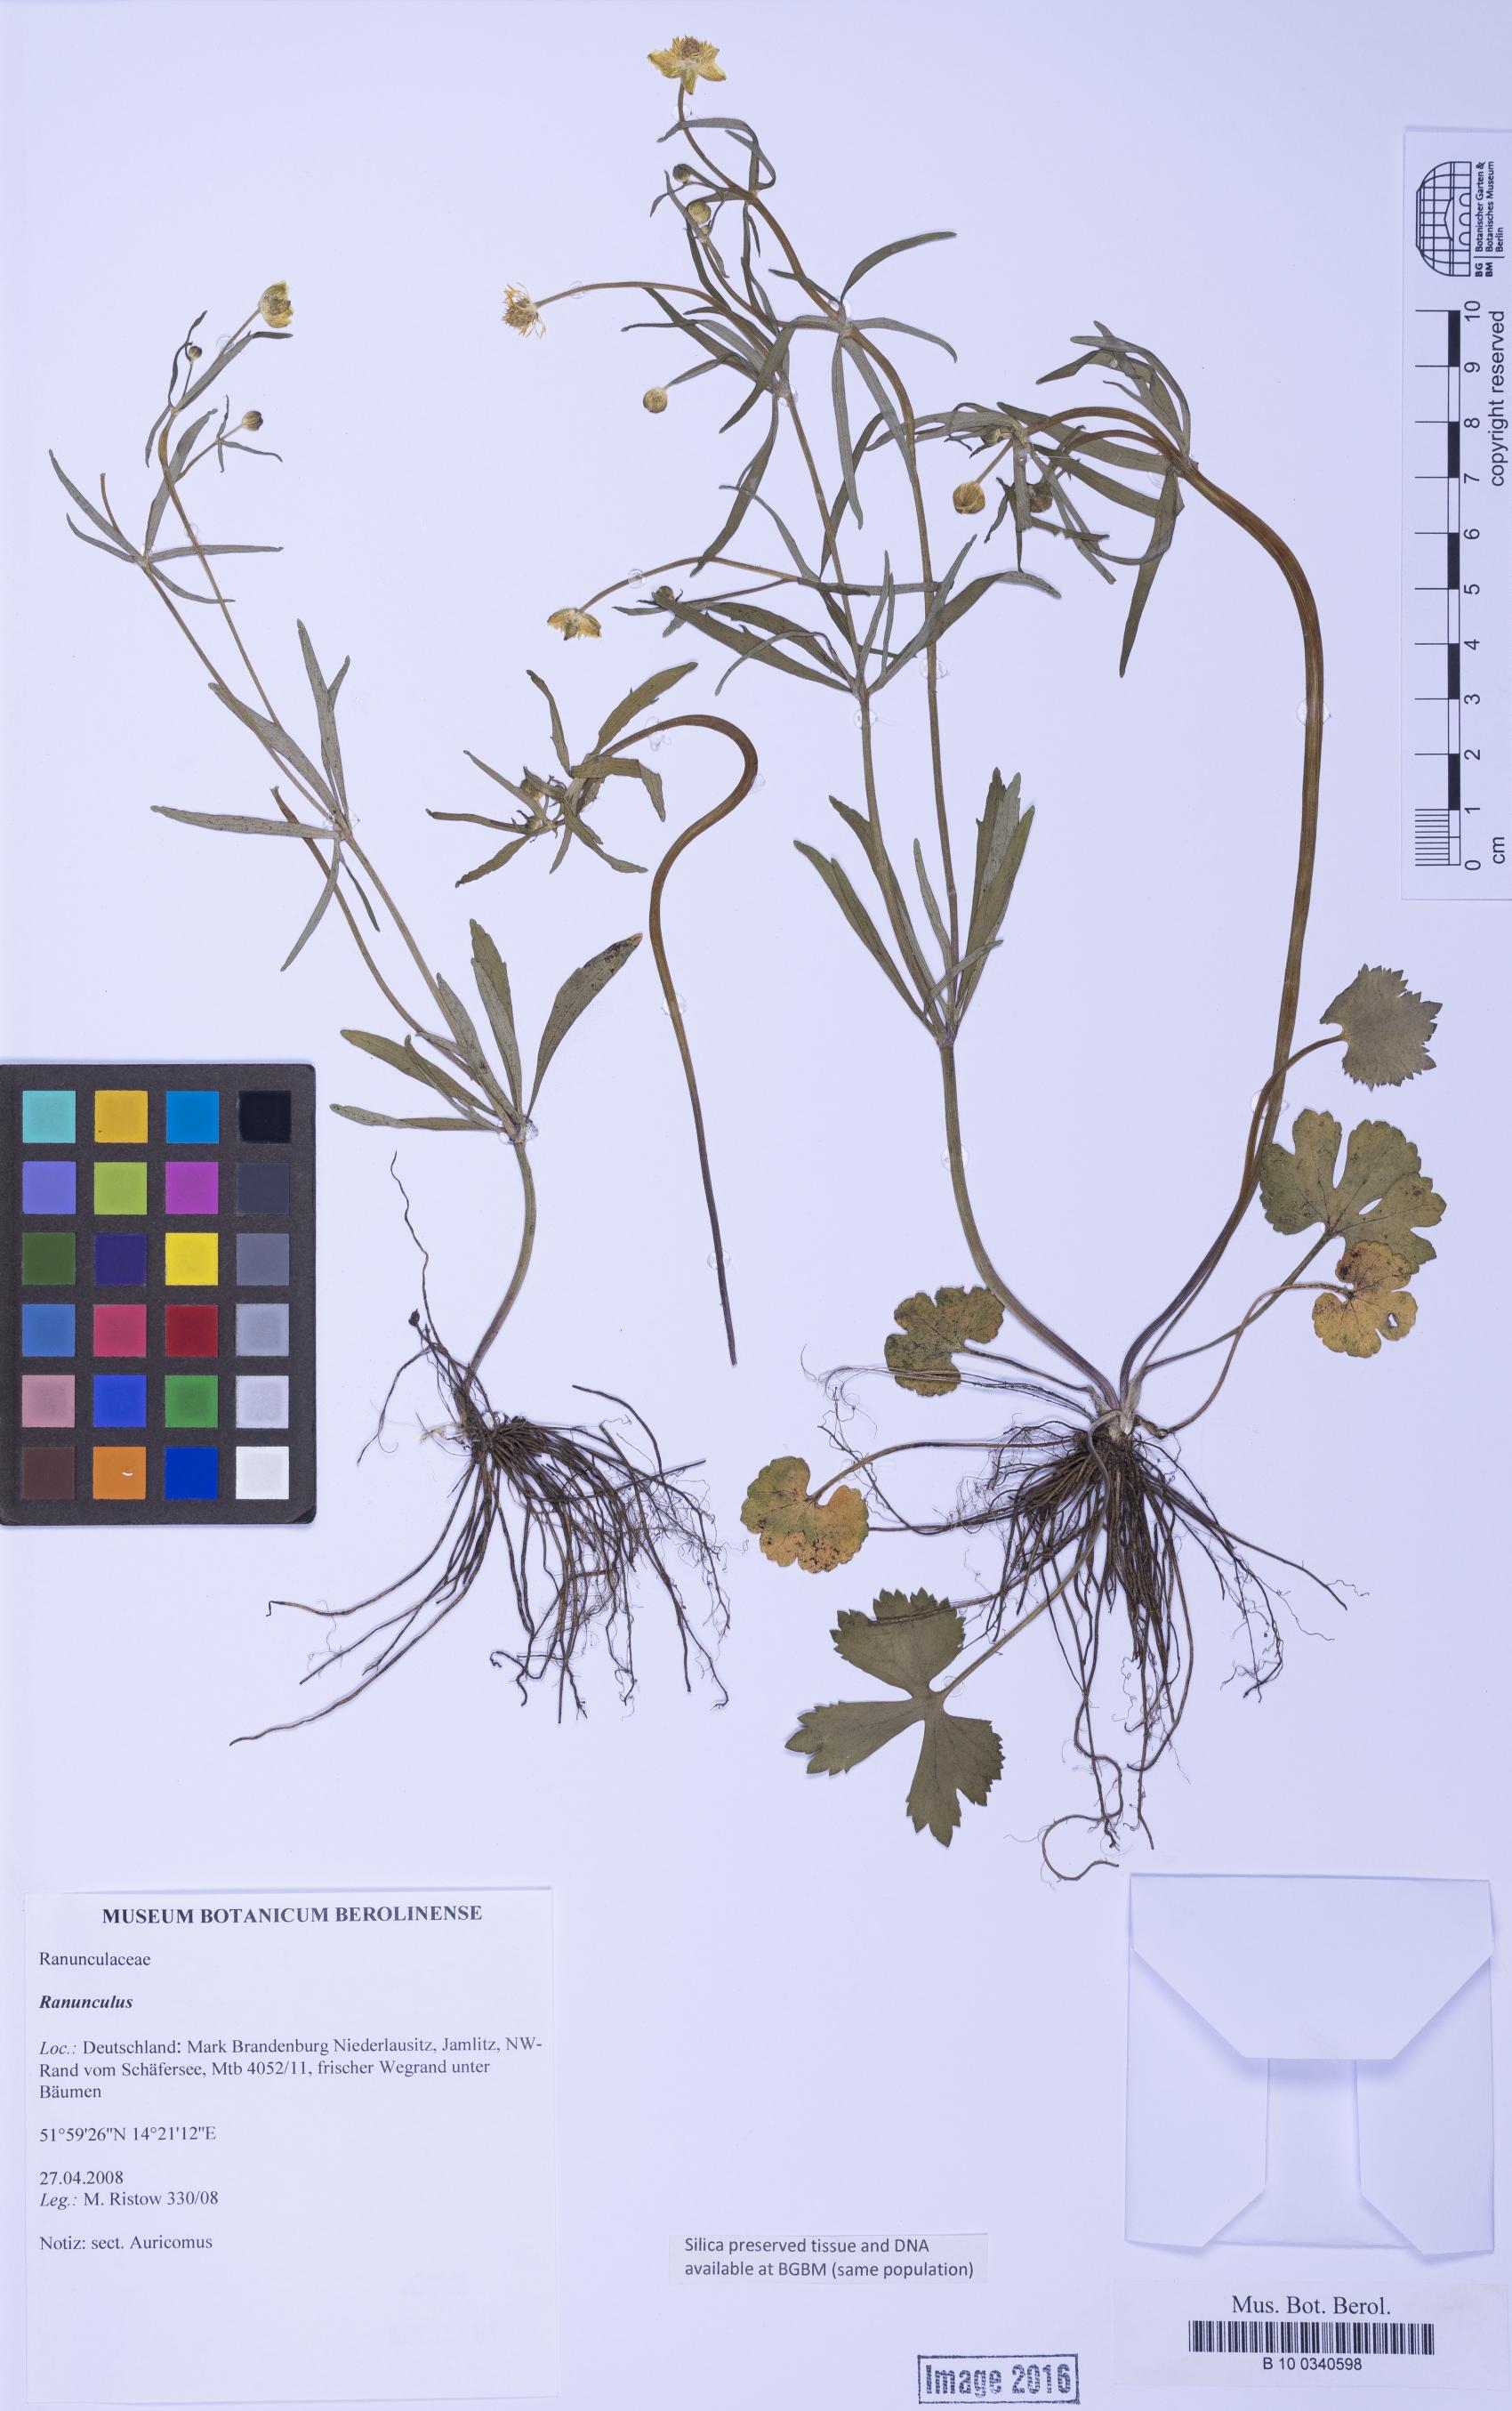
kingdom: Plantae
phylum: Tracheophyta
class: Magnoliopsida
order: Ranunculales
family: Ranunculaceae
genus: Ranunculus
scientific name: Ranunculus
